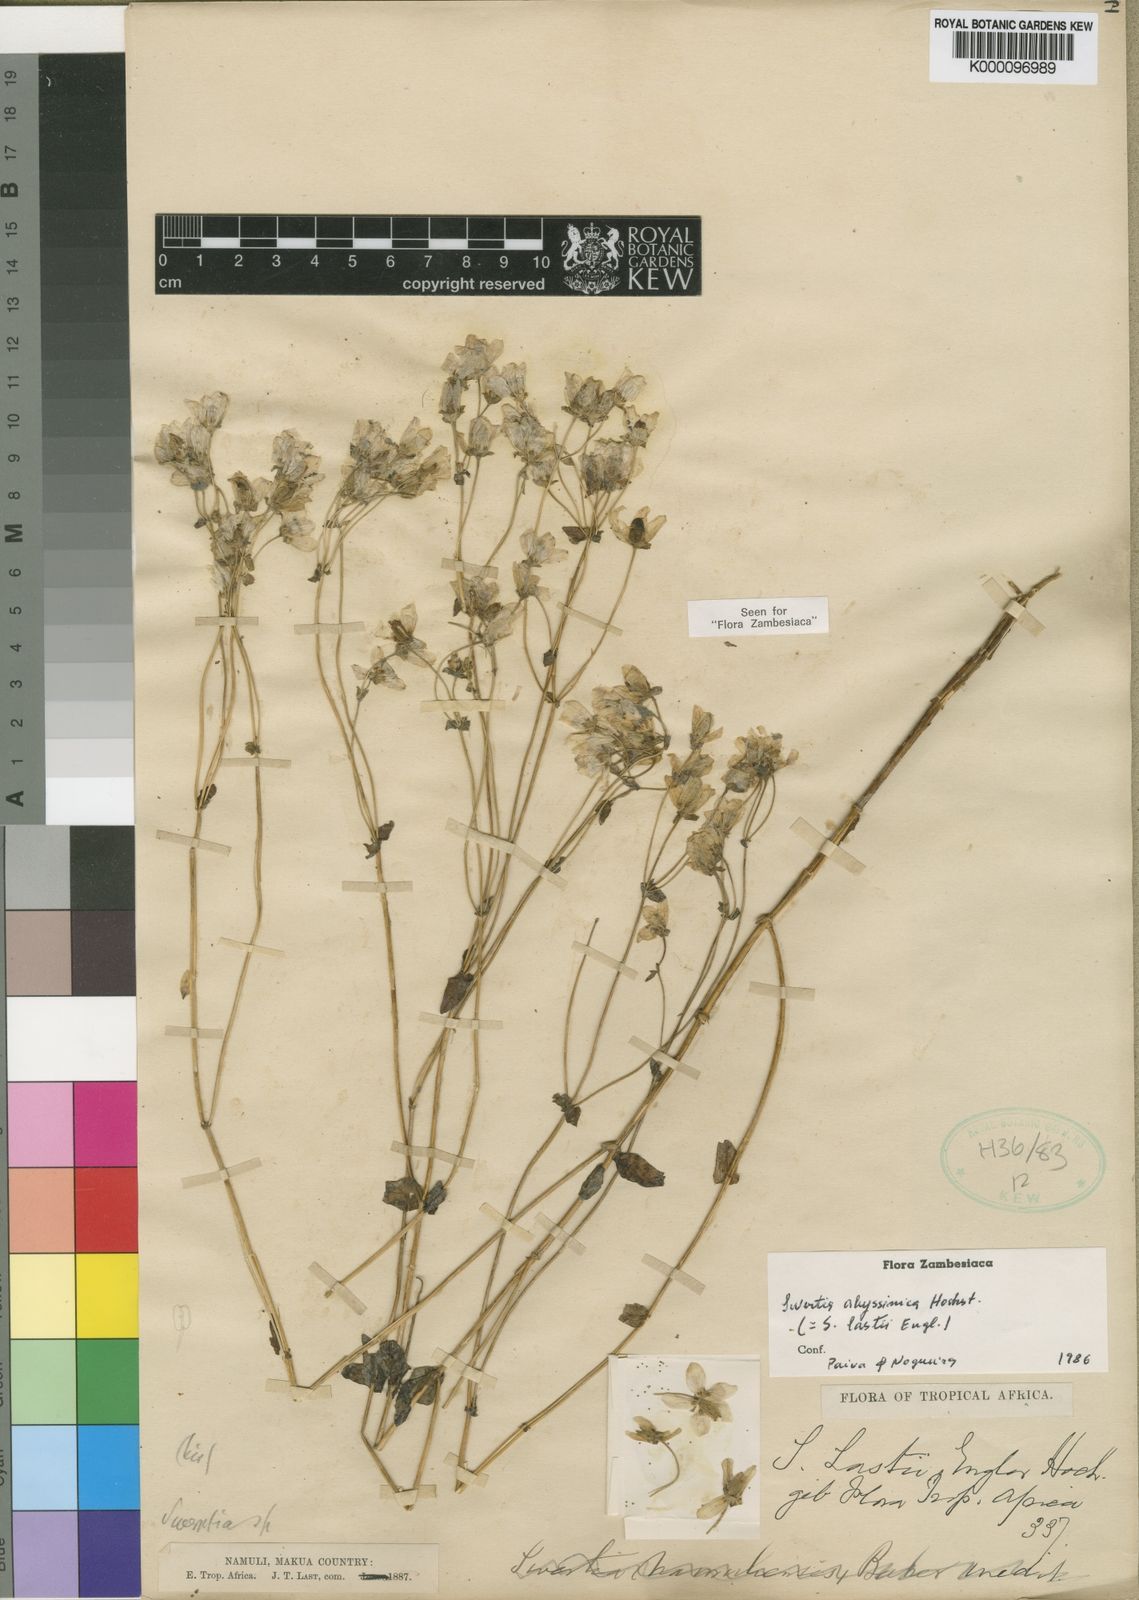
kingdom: Plantae
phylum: Tracheophyta
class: Magnoliopsida
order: Gentianales
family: Gentianaceae
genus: Swertia
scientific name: Swertia abyssinica
